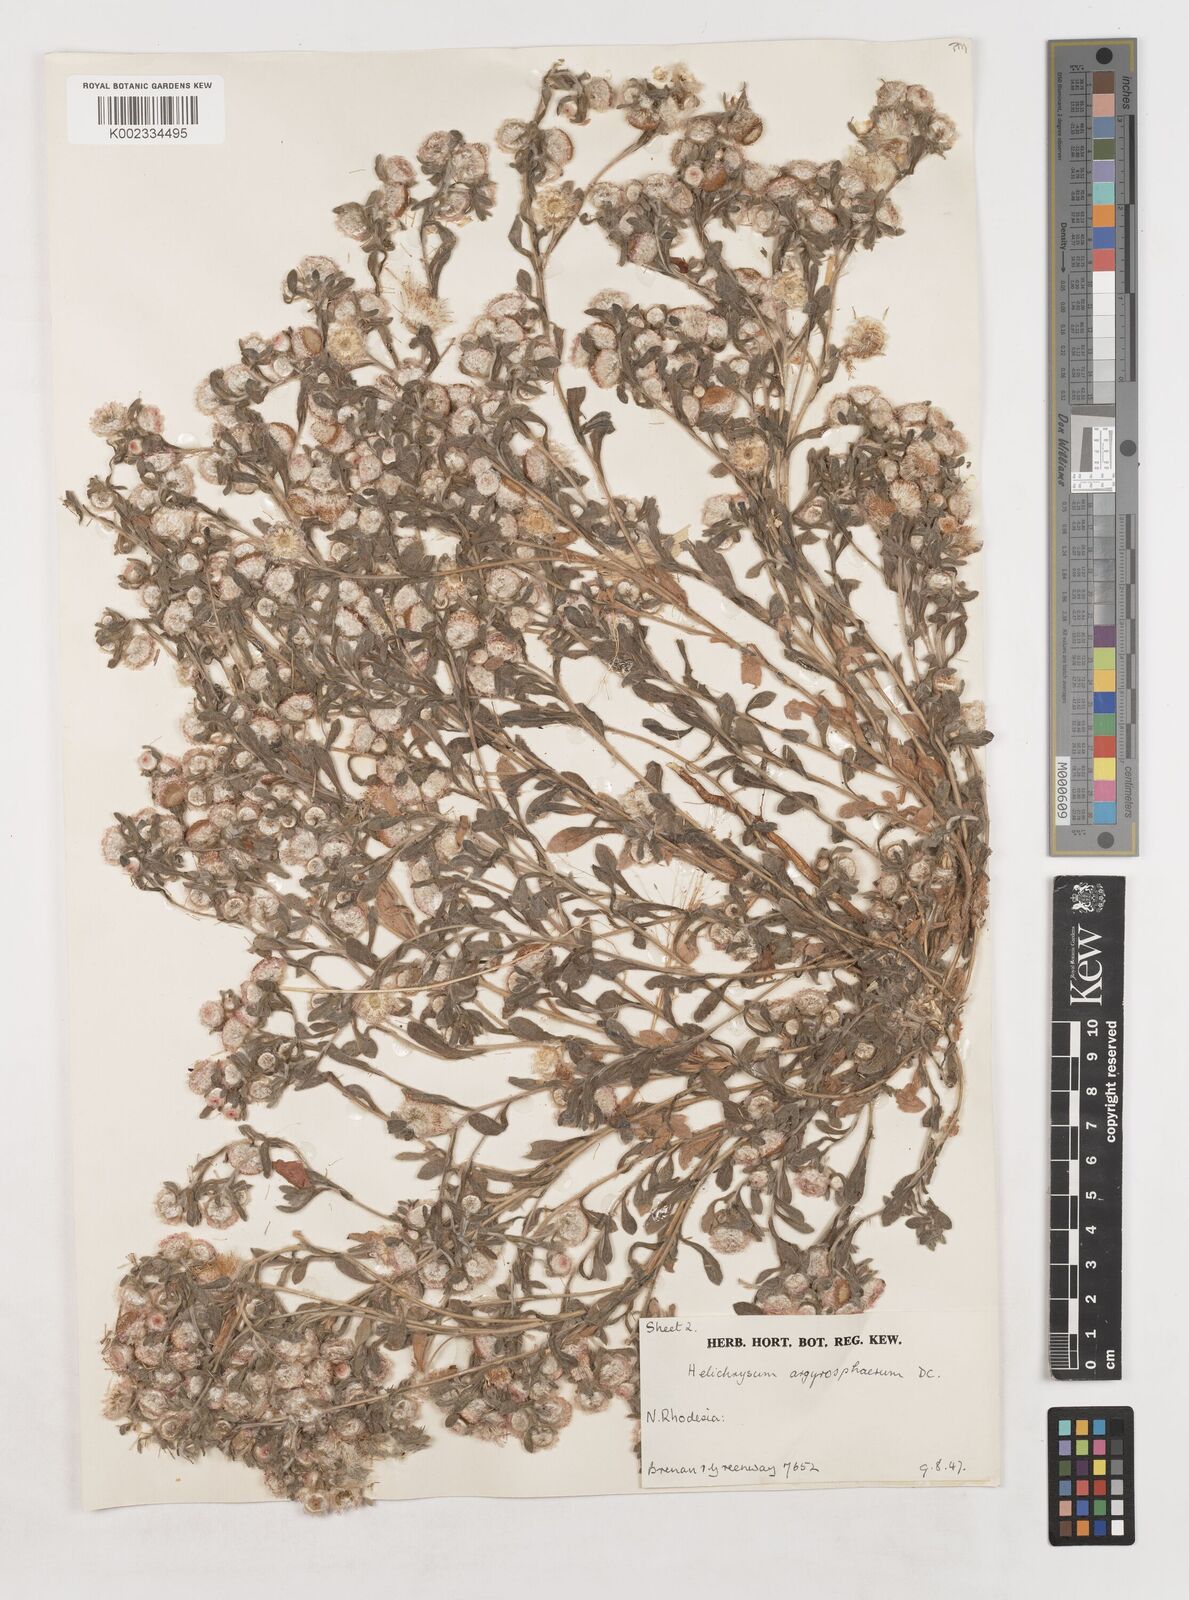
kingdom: Plantae
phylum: Tracheophyta
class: Magnoliopsida
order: Asterales
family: Asteraceae
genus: Helichrysum
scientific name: Helichrysum argyrosphaerum
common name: Wild everlasting
